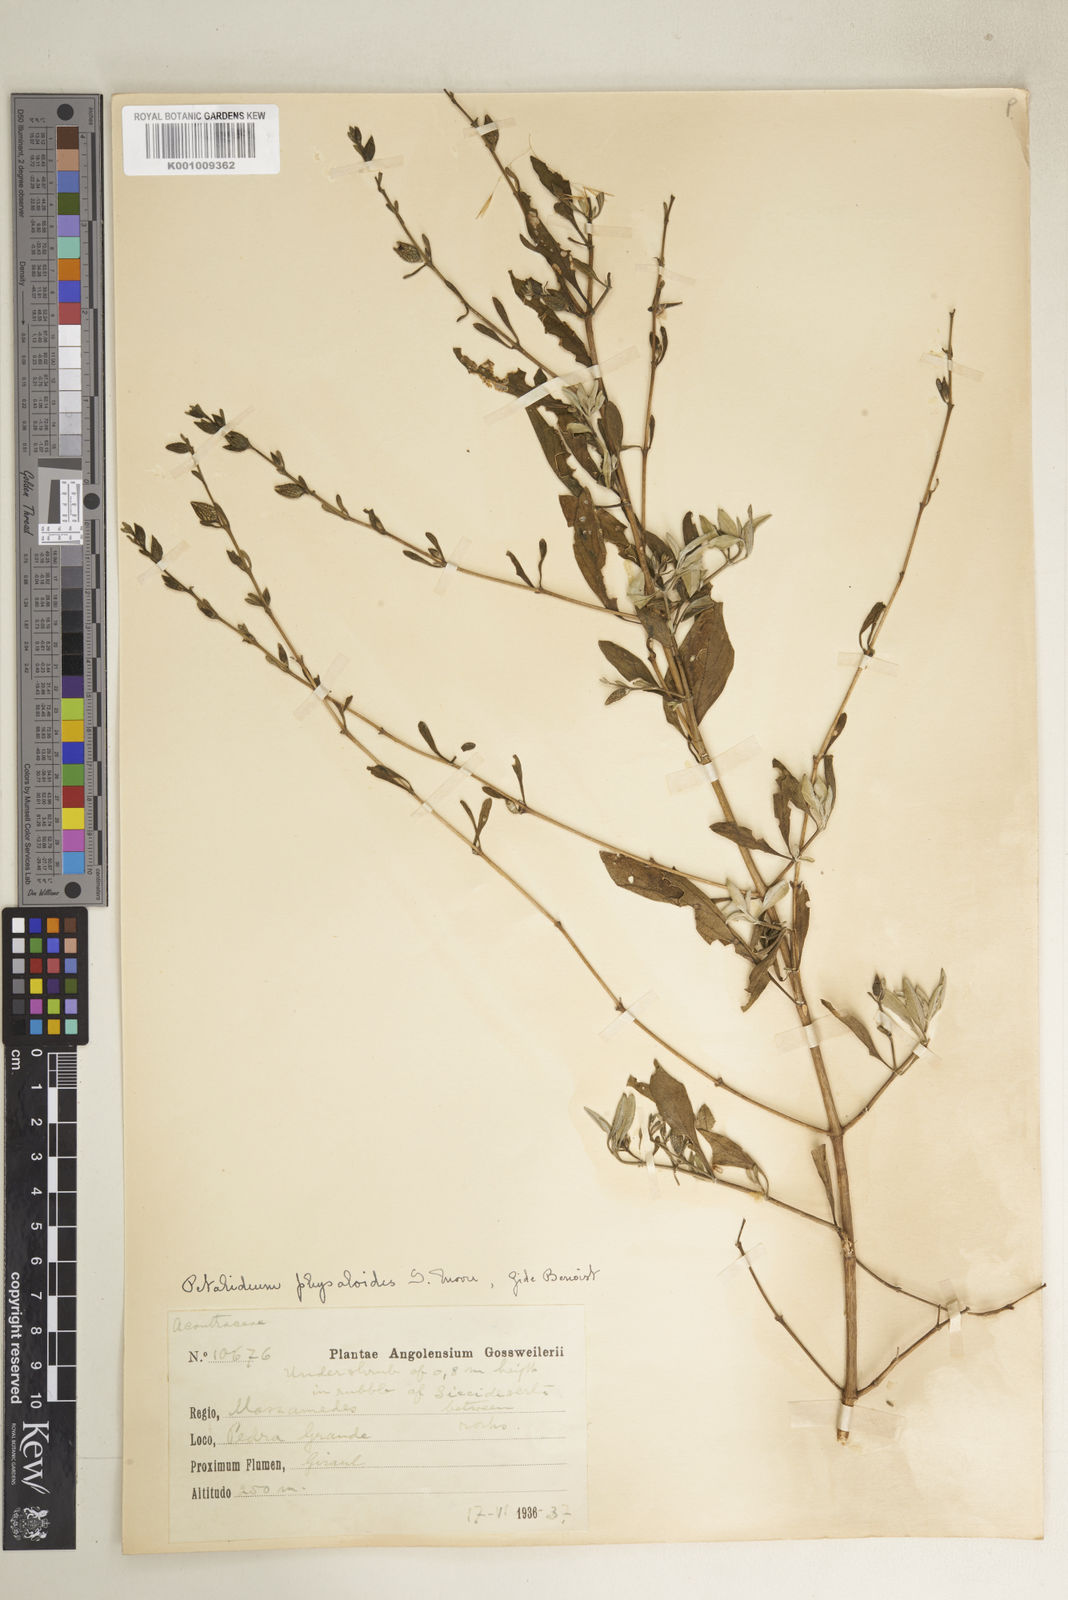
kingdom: Plantae
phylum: Tracheophyta
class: Magnoliopsida
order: Lamiales
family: Acanthaceae
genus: Petalidium
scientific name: Petalidium physaloides
